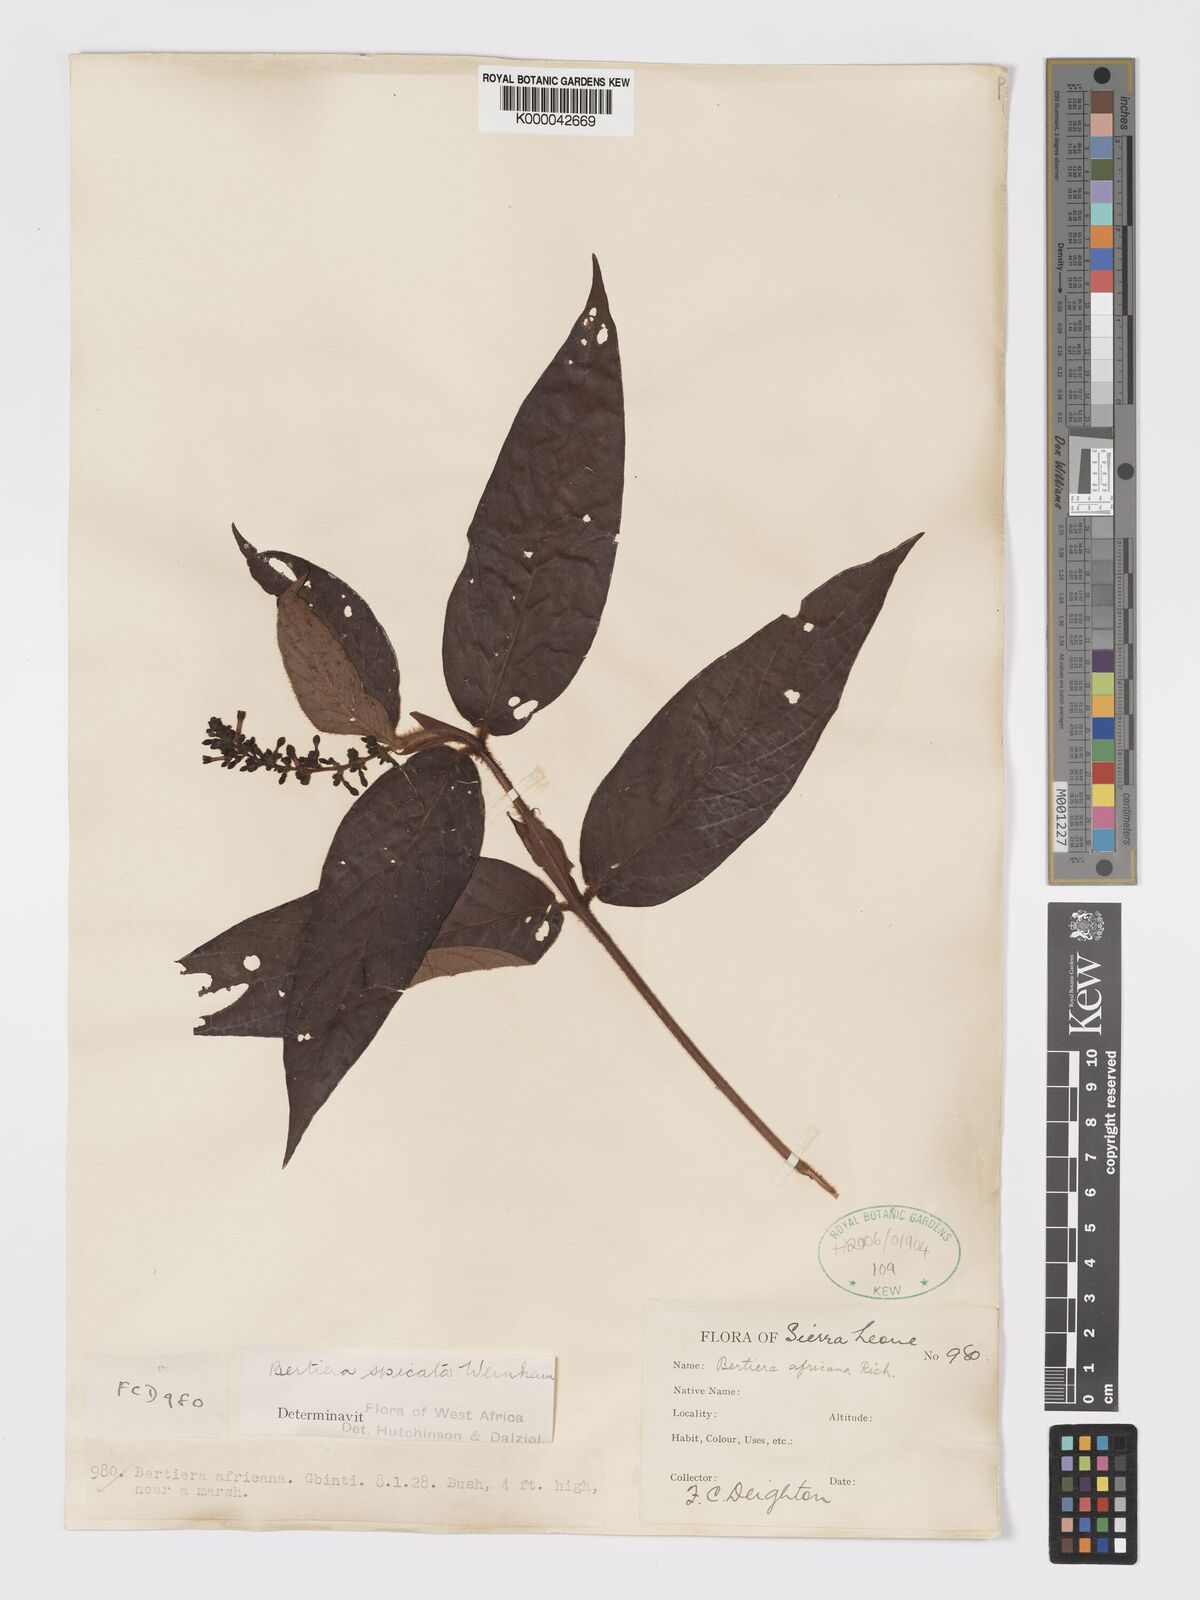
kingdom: Plantae
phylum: Tracheophyta
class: Magnoliopsida
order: Gentianales
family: Rubiaceae
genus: Bertiera
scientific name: Bertiera
